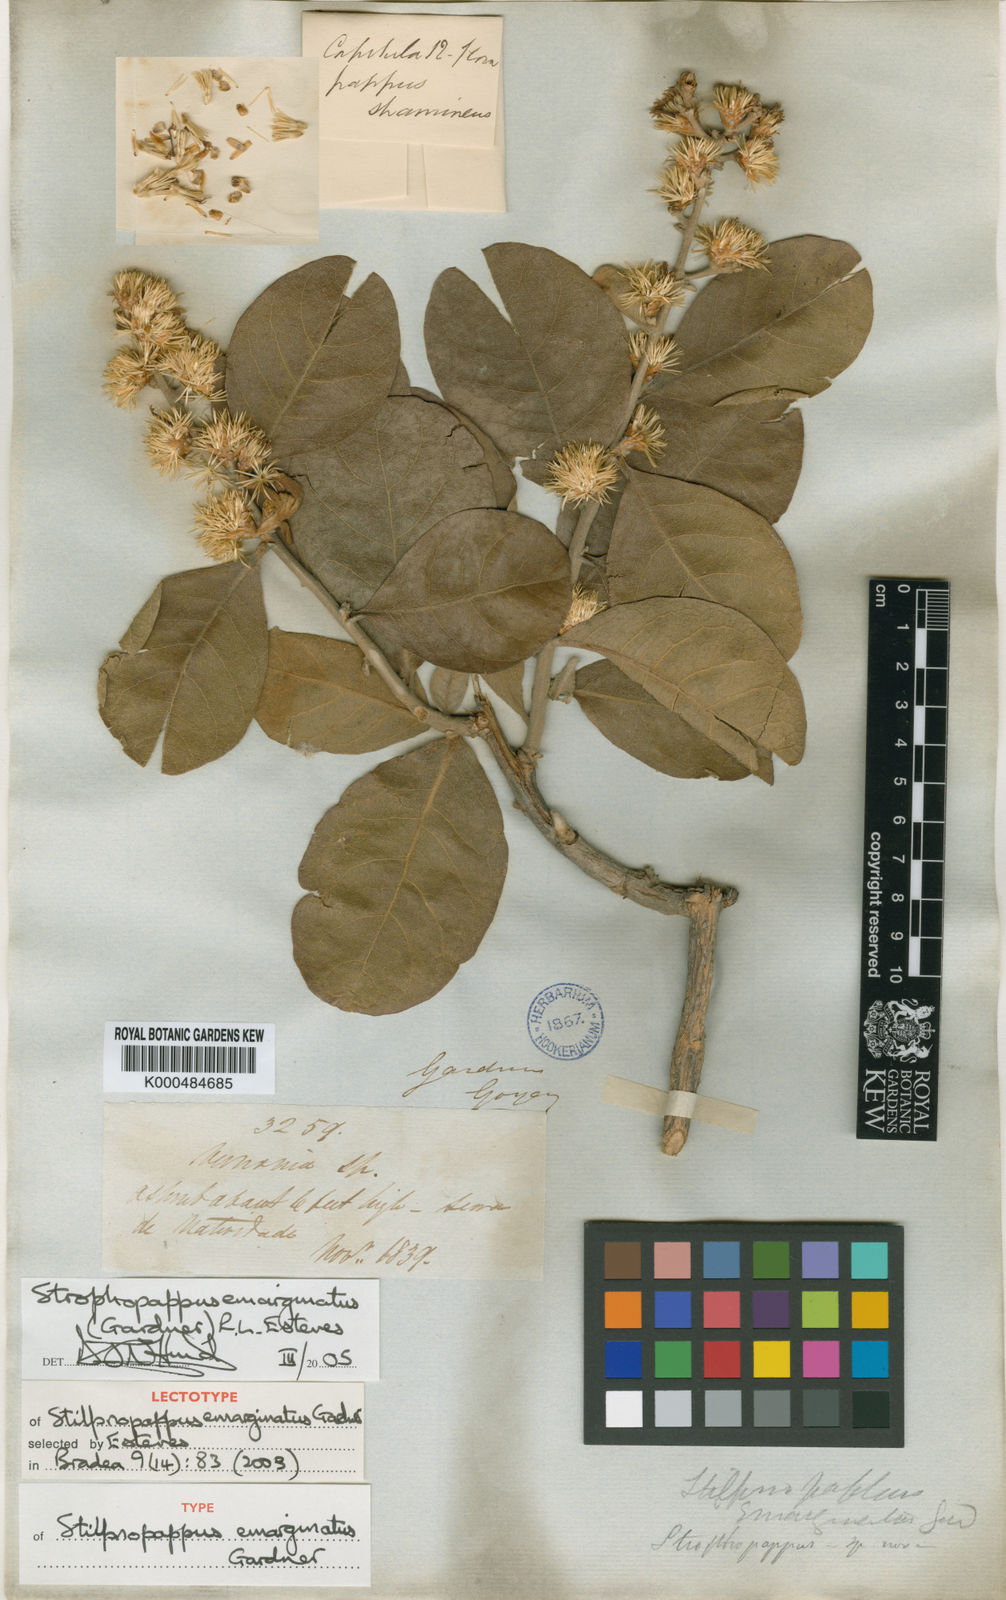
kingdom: Plantae
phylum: Tracheophyta
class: Magnoliopsida
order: Asterales
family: Asteraceae
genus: Stilpnopappus
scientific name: Stilpnopappus emarginatus
